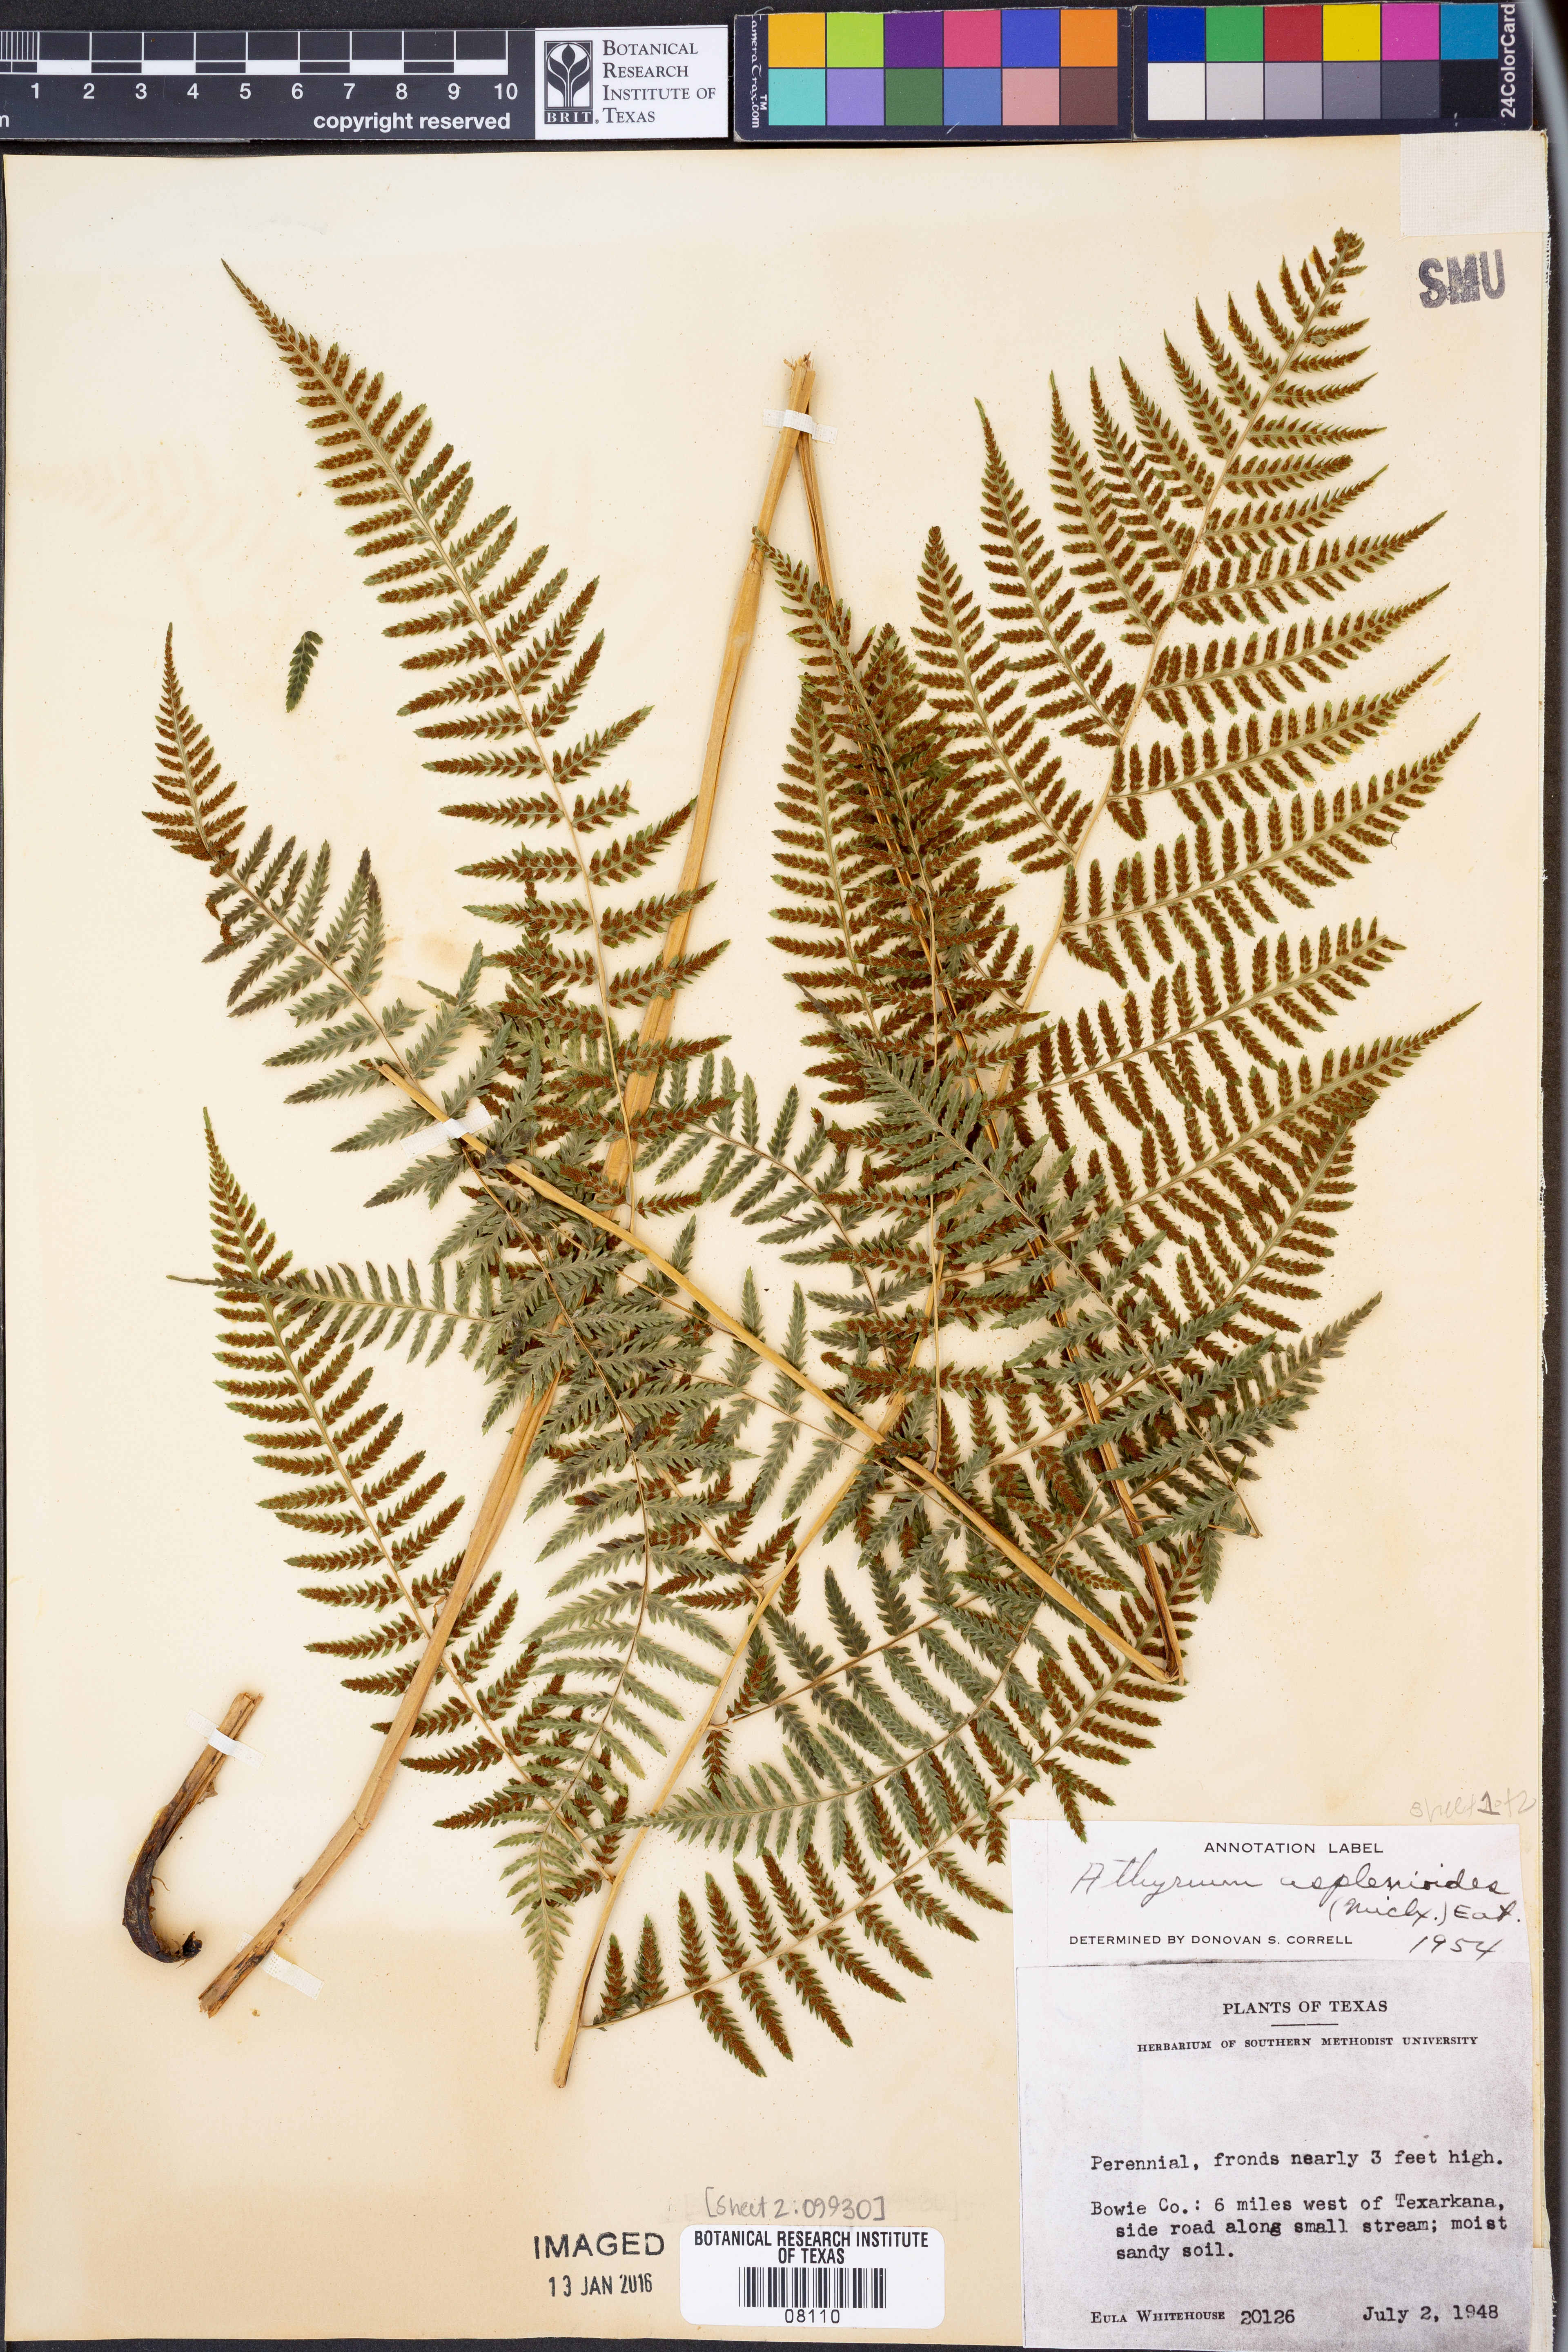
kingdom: Plantae
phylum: Tracheophyta
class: Polypodiopsida
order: Polypodiales
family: Athyriaceae
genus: Athyrium
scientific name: Athyrium asplenioides
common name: Southern lady fern
